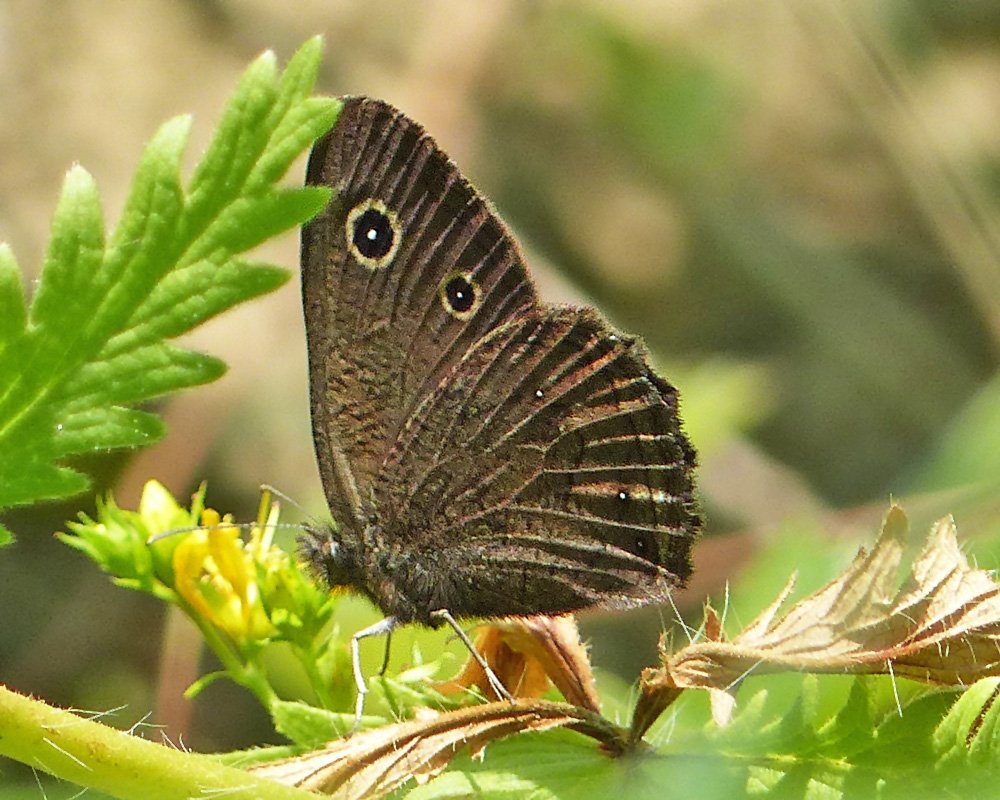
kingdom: Animalia
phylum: Arthropoda
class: Insecta
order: Lepidoptera
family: Nymphalidae
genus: Cercyonis
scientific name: Cercyonis oetus
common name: Small Wood-Nymph
